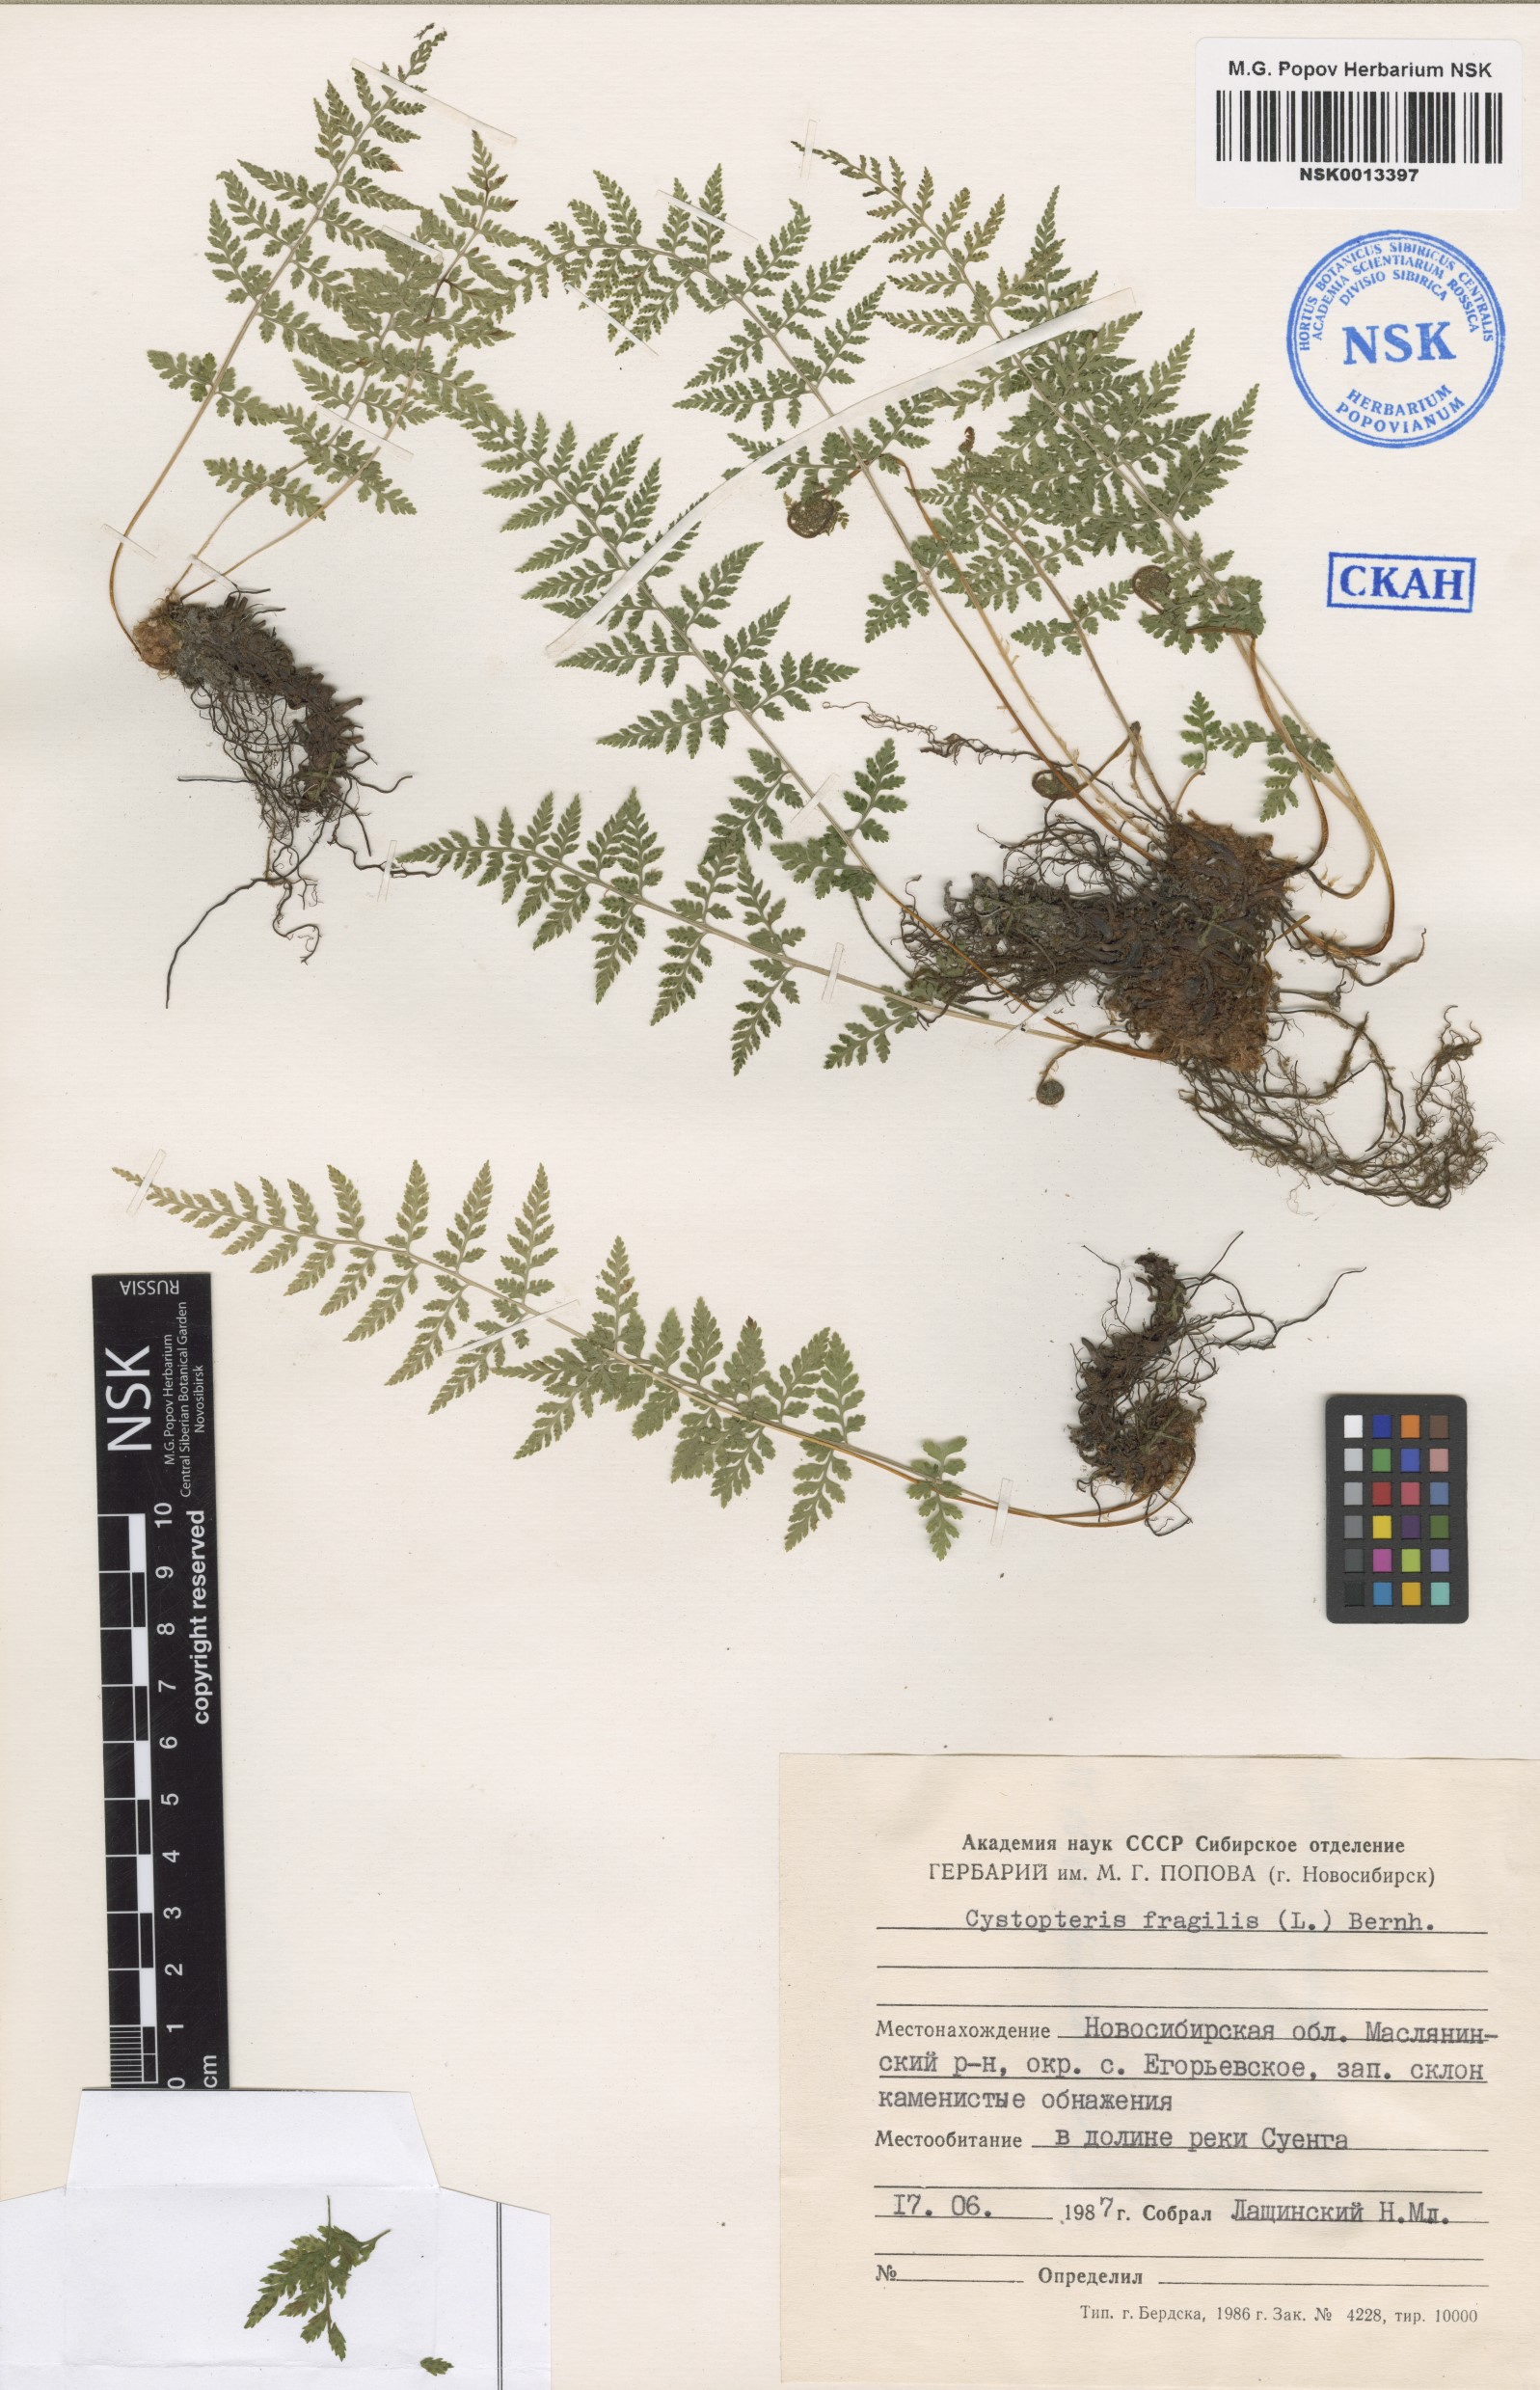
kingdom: Plantae
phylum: Tracheophyta
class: Polypodiopsida
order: Polypodiales
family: Cystopteridaceae
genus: Cystopteris
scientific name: Cystopteris fragilis
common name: Brittle bladder fern
